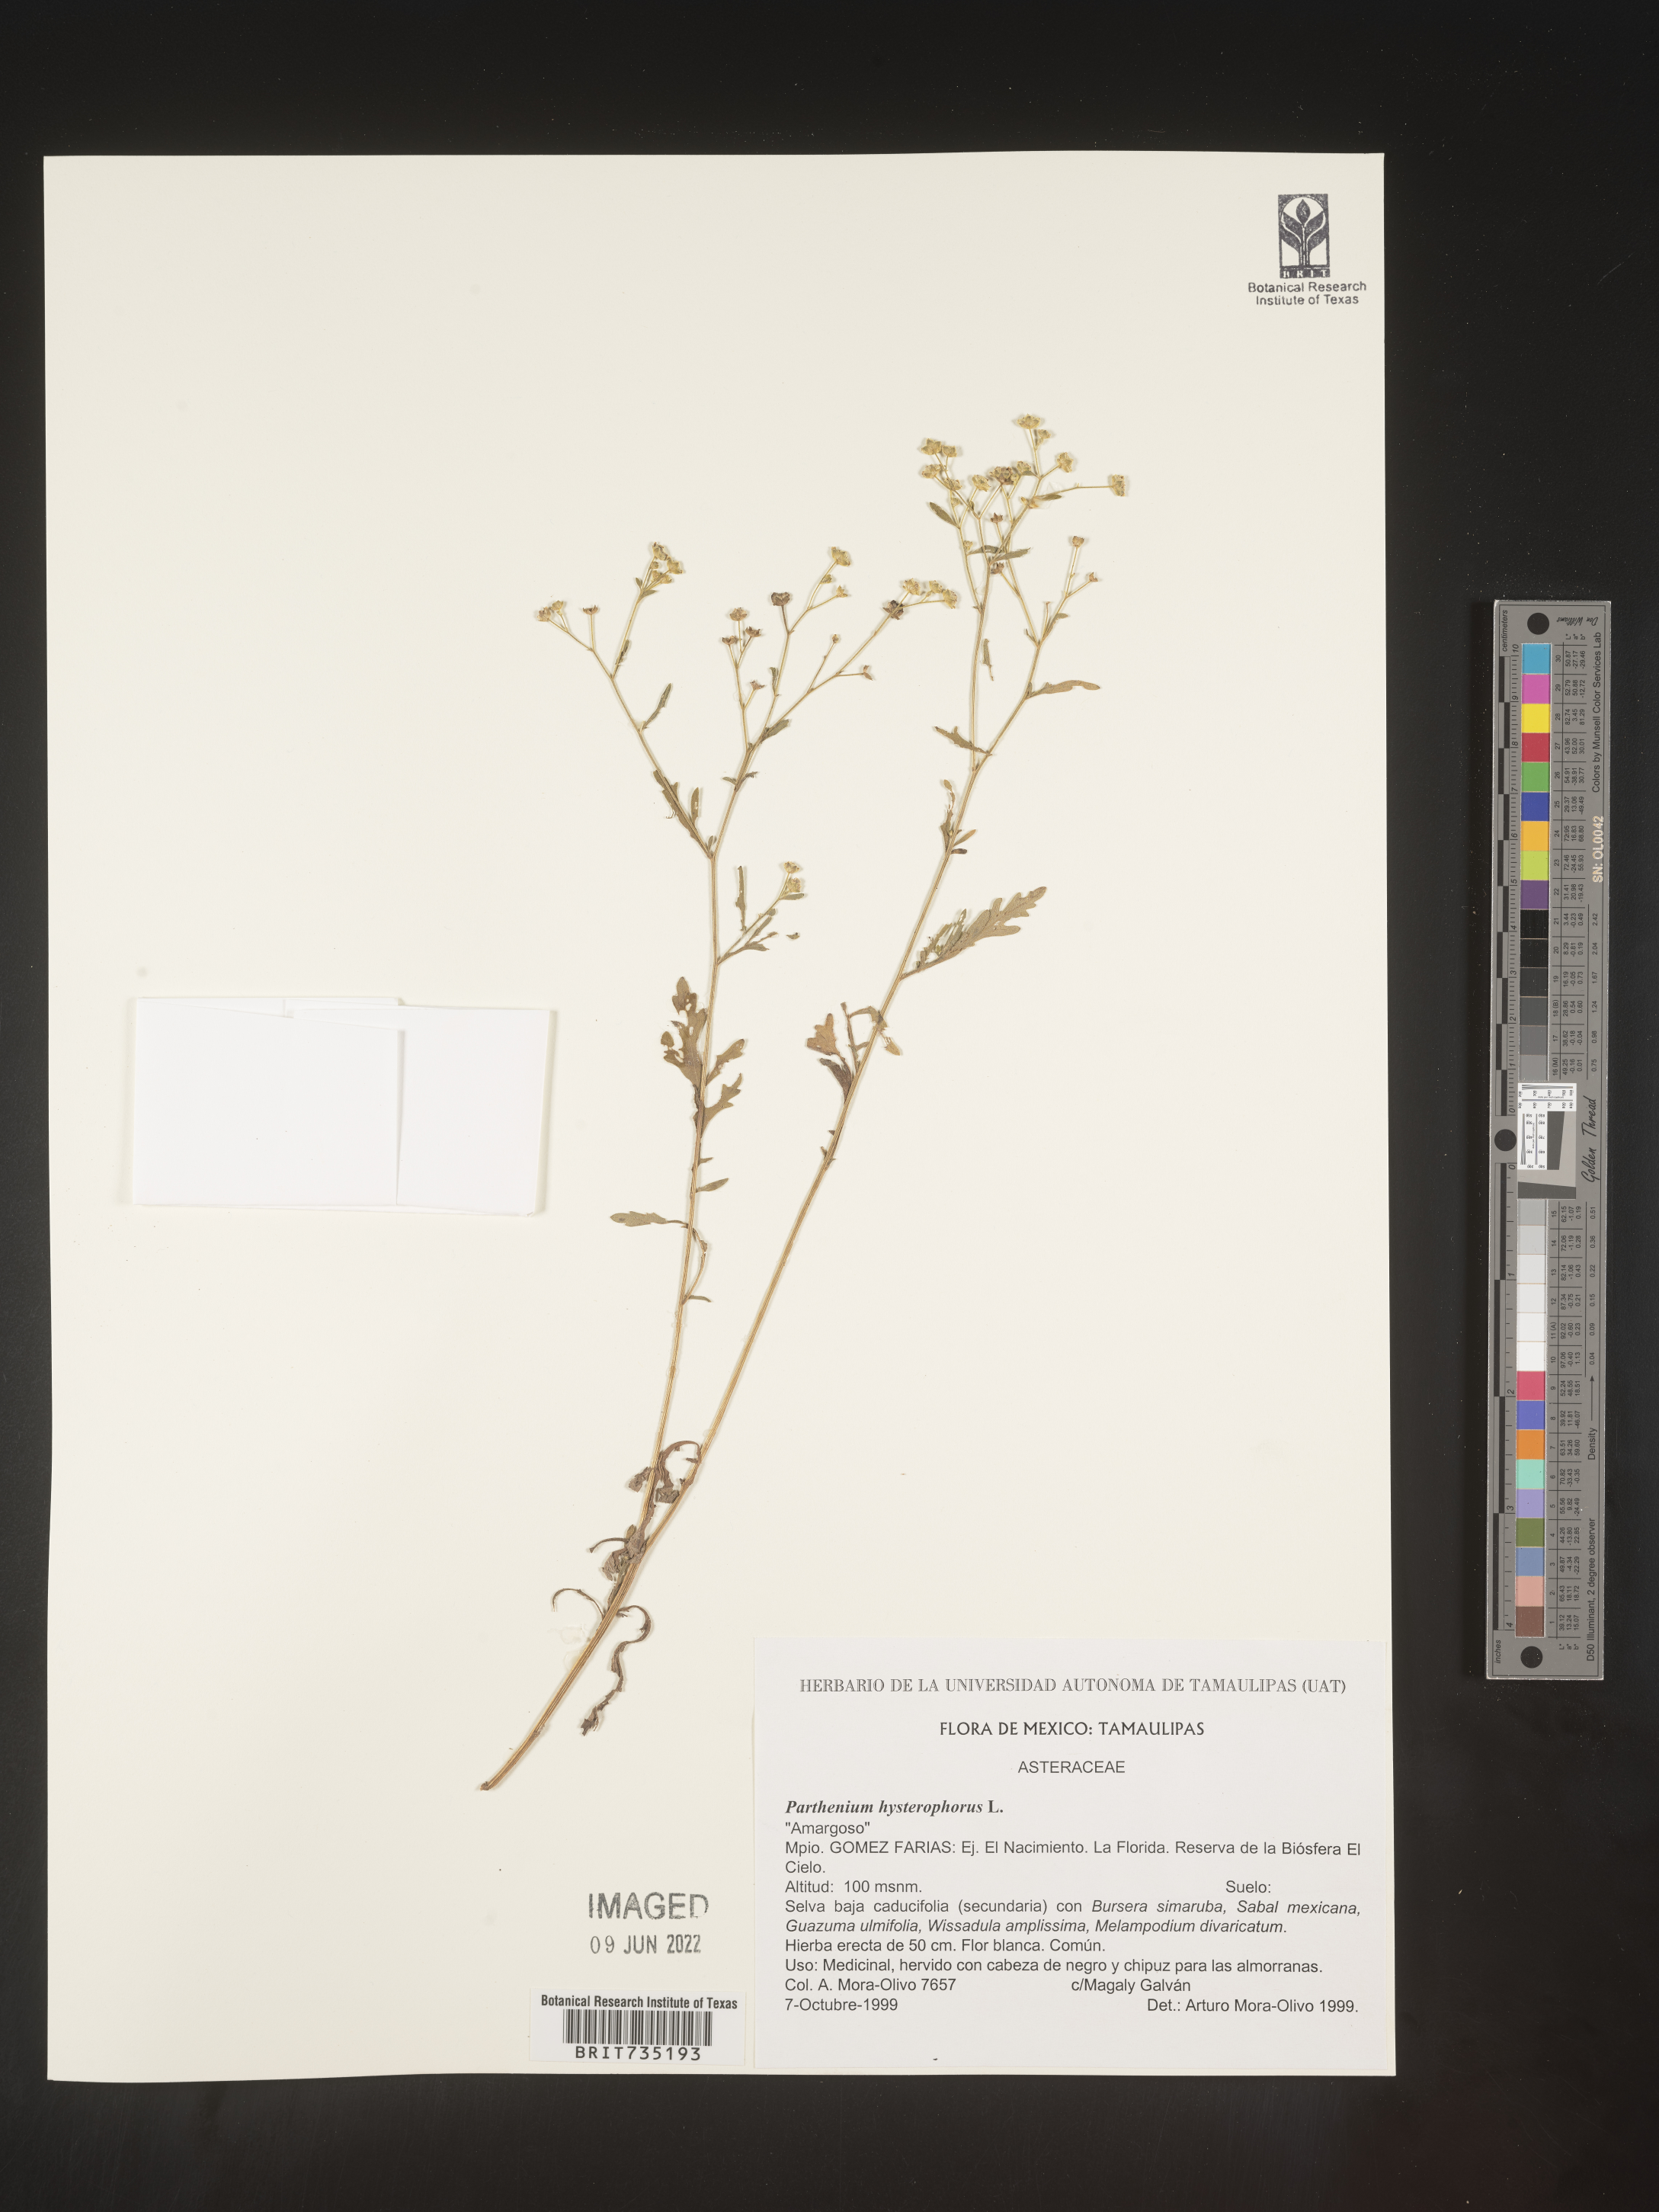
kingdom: Plantae
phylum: Tracheophyta
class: Magnoliopsida
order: Asterales
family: Asteraceae
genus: Parthenium
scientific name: Parthenium hysterophorus
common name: Santa maria feverfew
